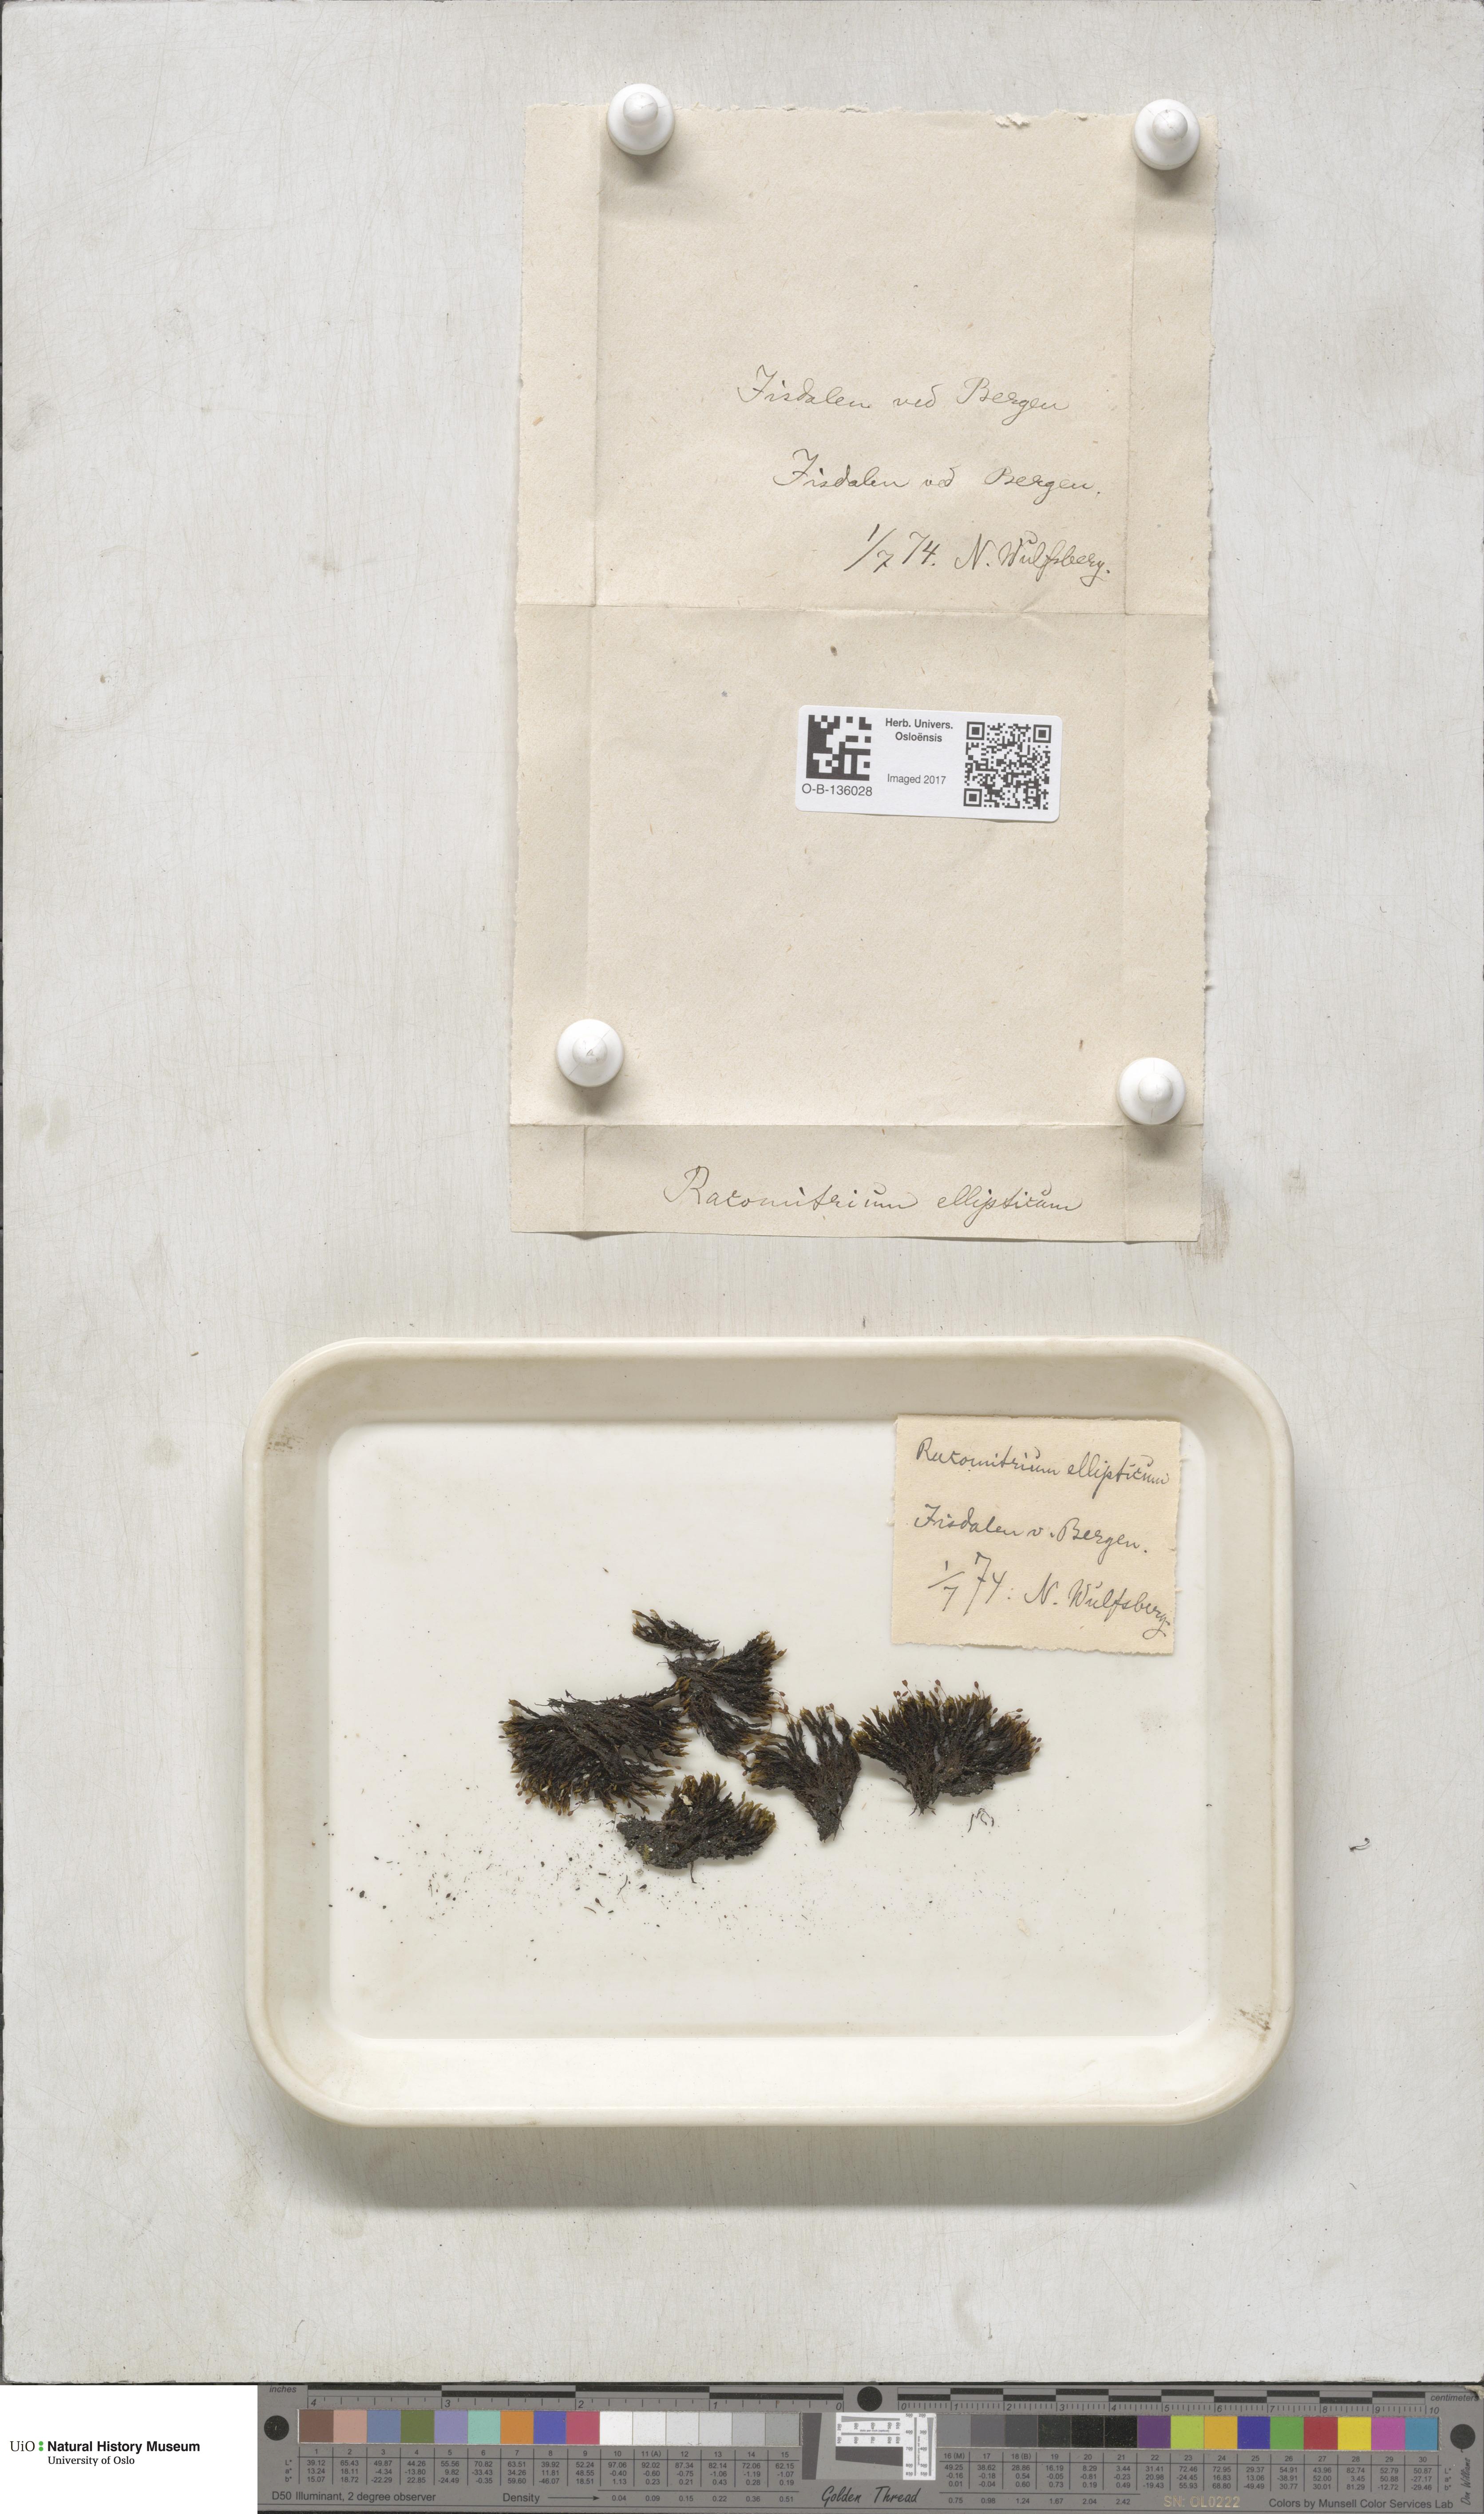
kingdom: Plantae
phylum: Bryophyta
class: Bryopsida
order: Grimmiales
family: Grimmiaceae
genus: Bucklandiella
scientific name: Bucklandiella elliptica
